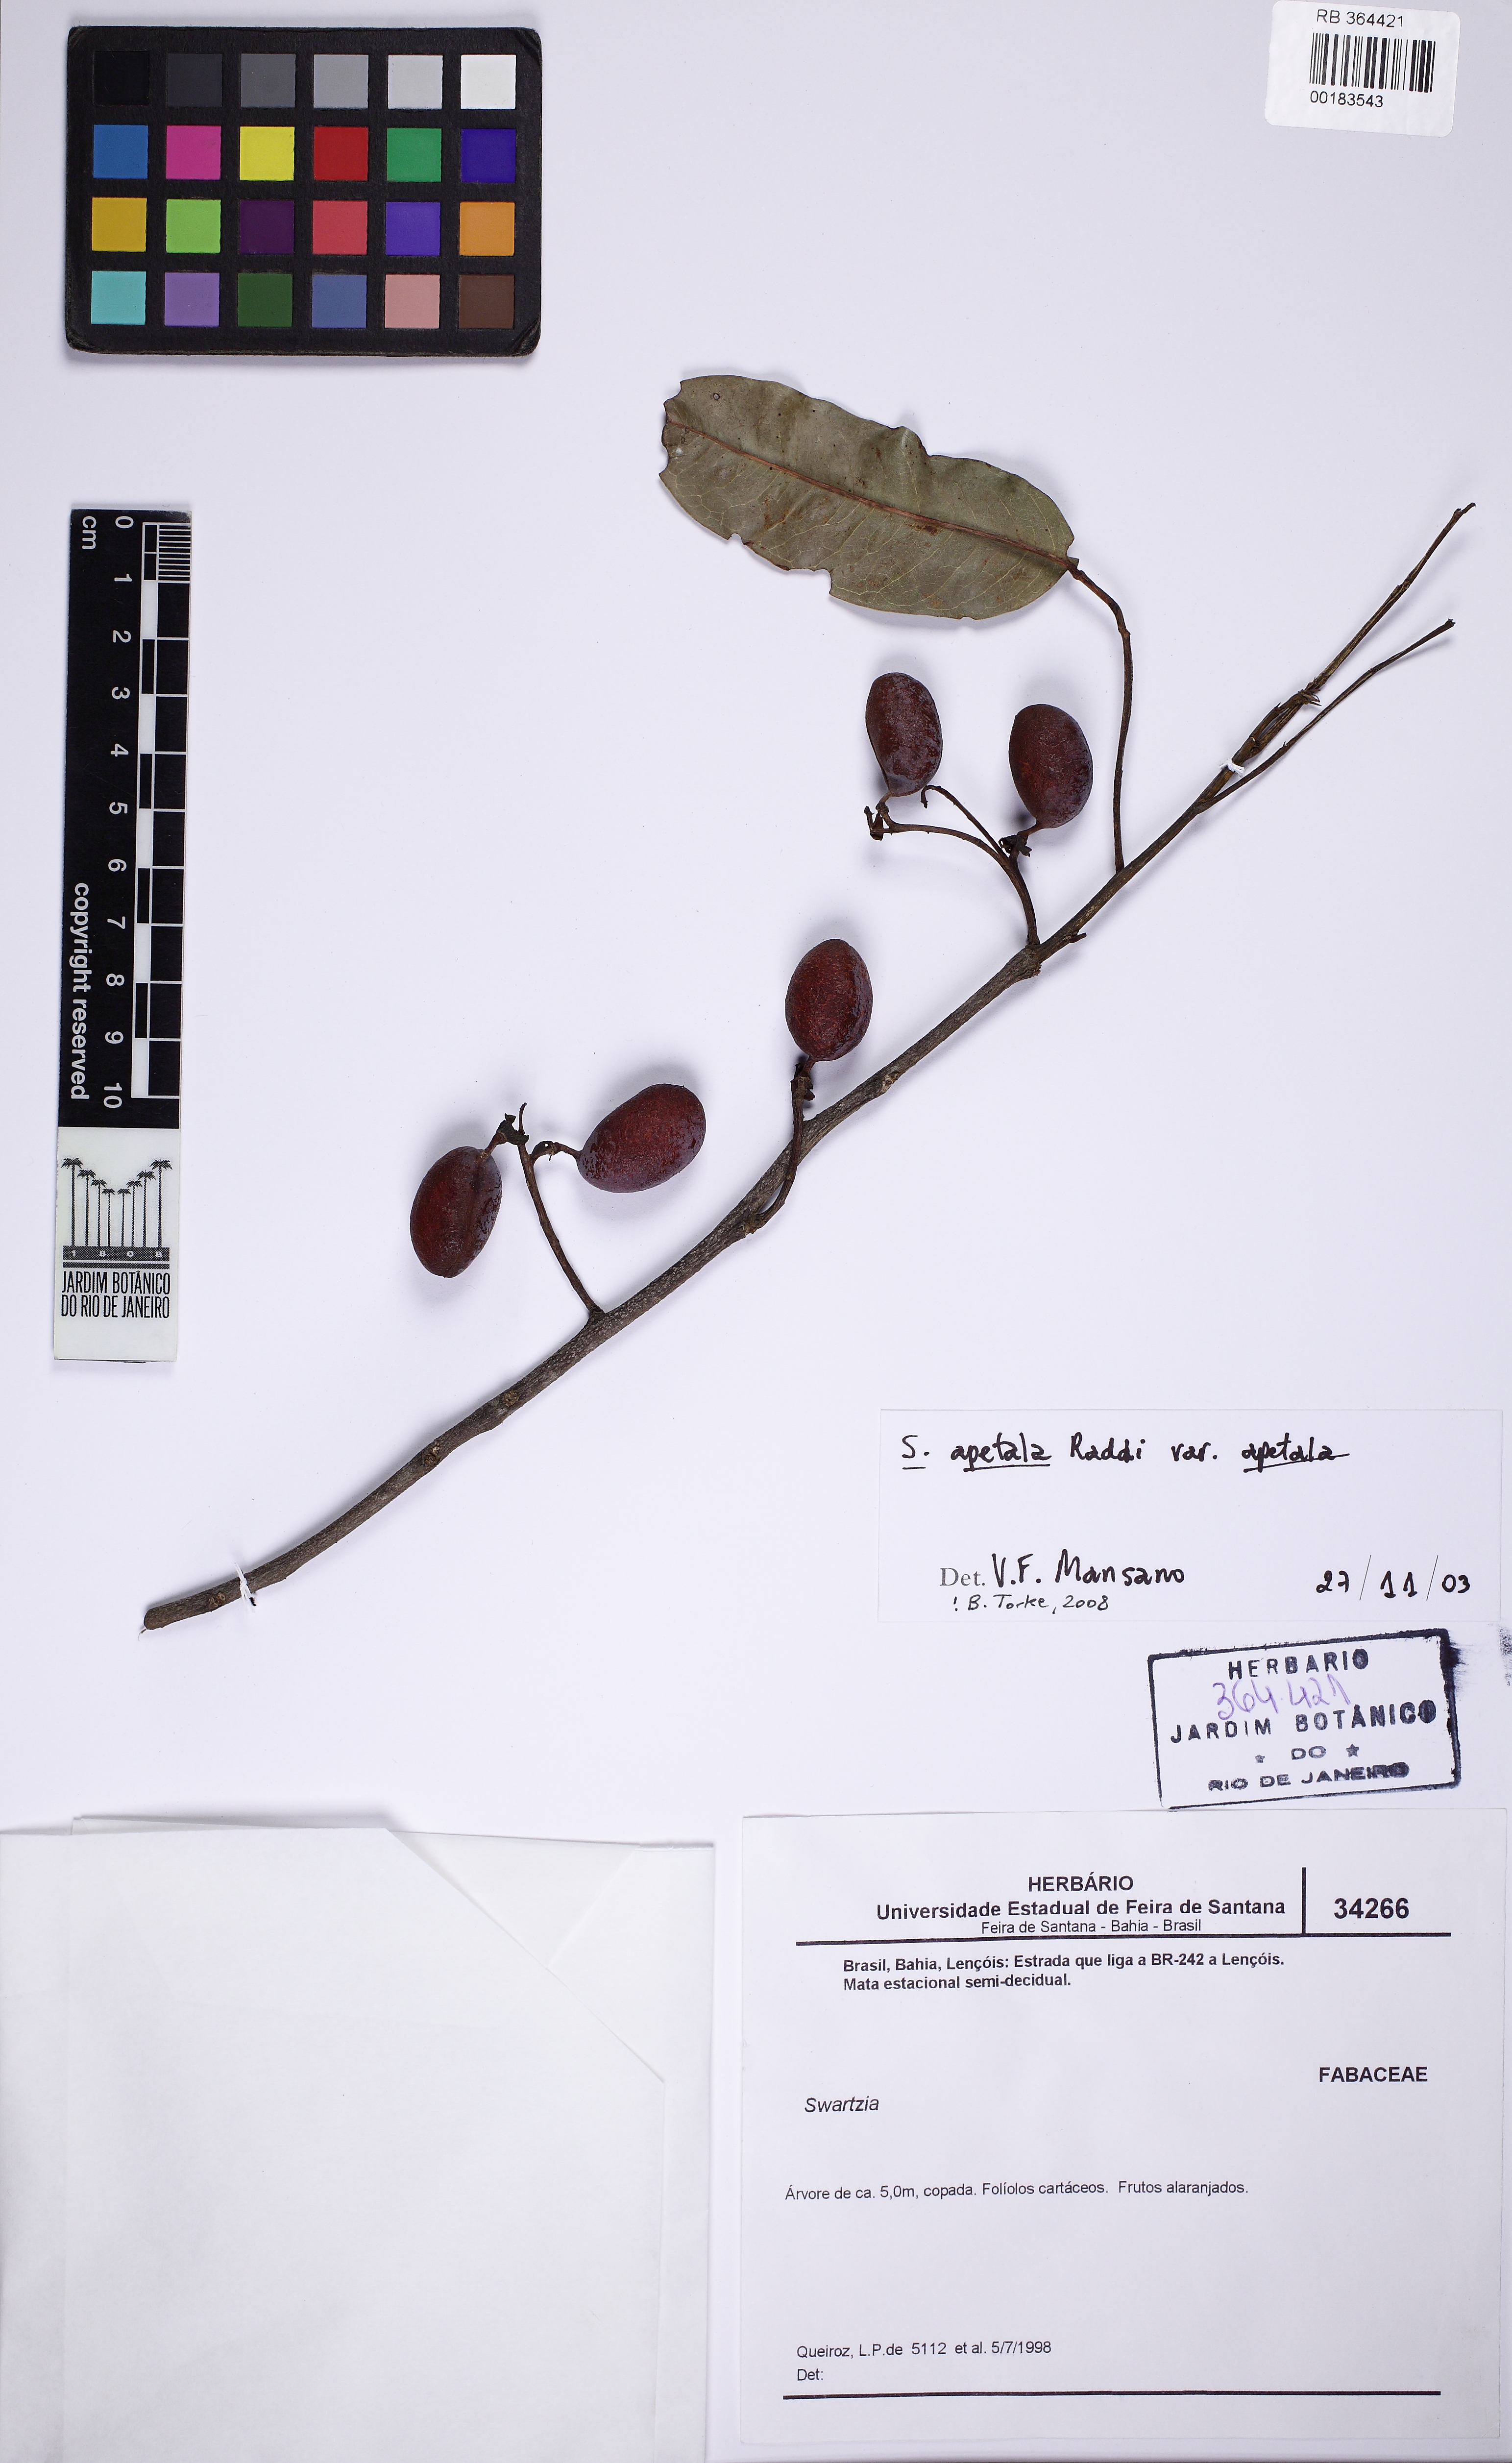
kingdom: Plantae
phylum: Tracheophyta
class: Magnoliopsida
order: Fabales
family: Fabaceae
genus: Swartzia
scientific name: Swartzia apetala
